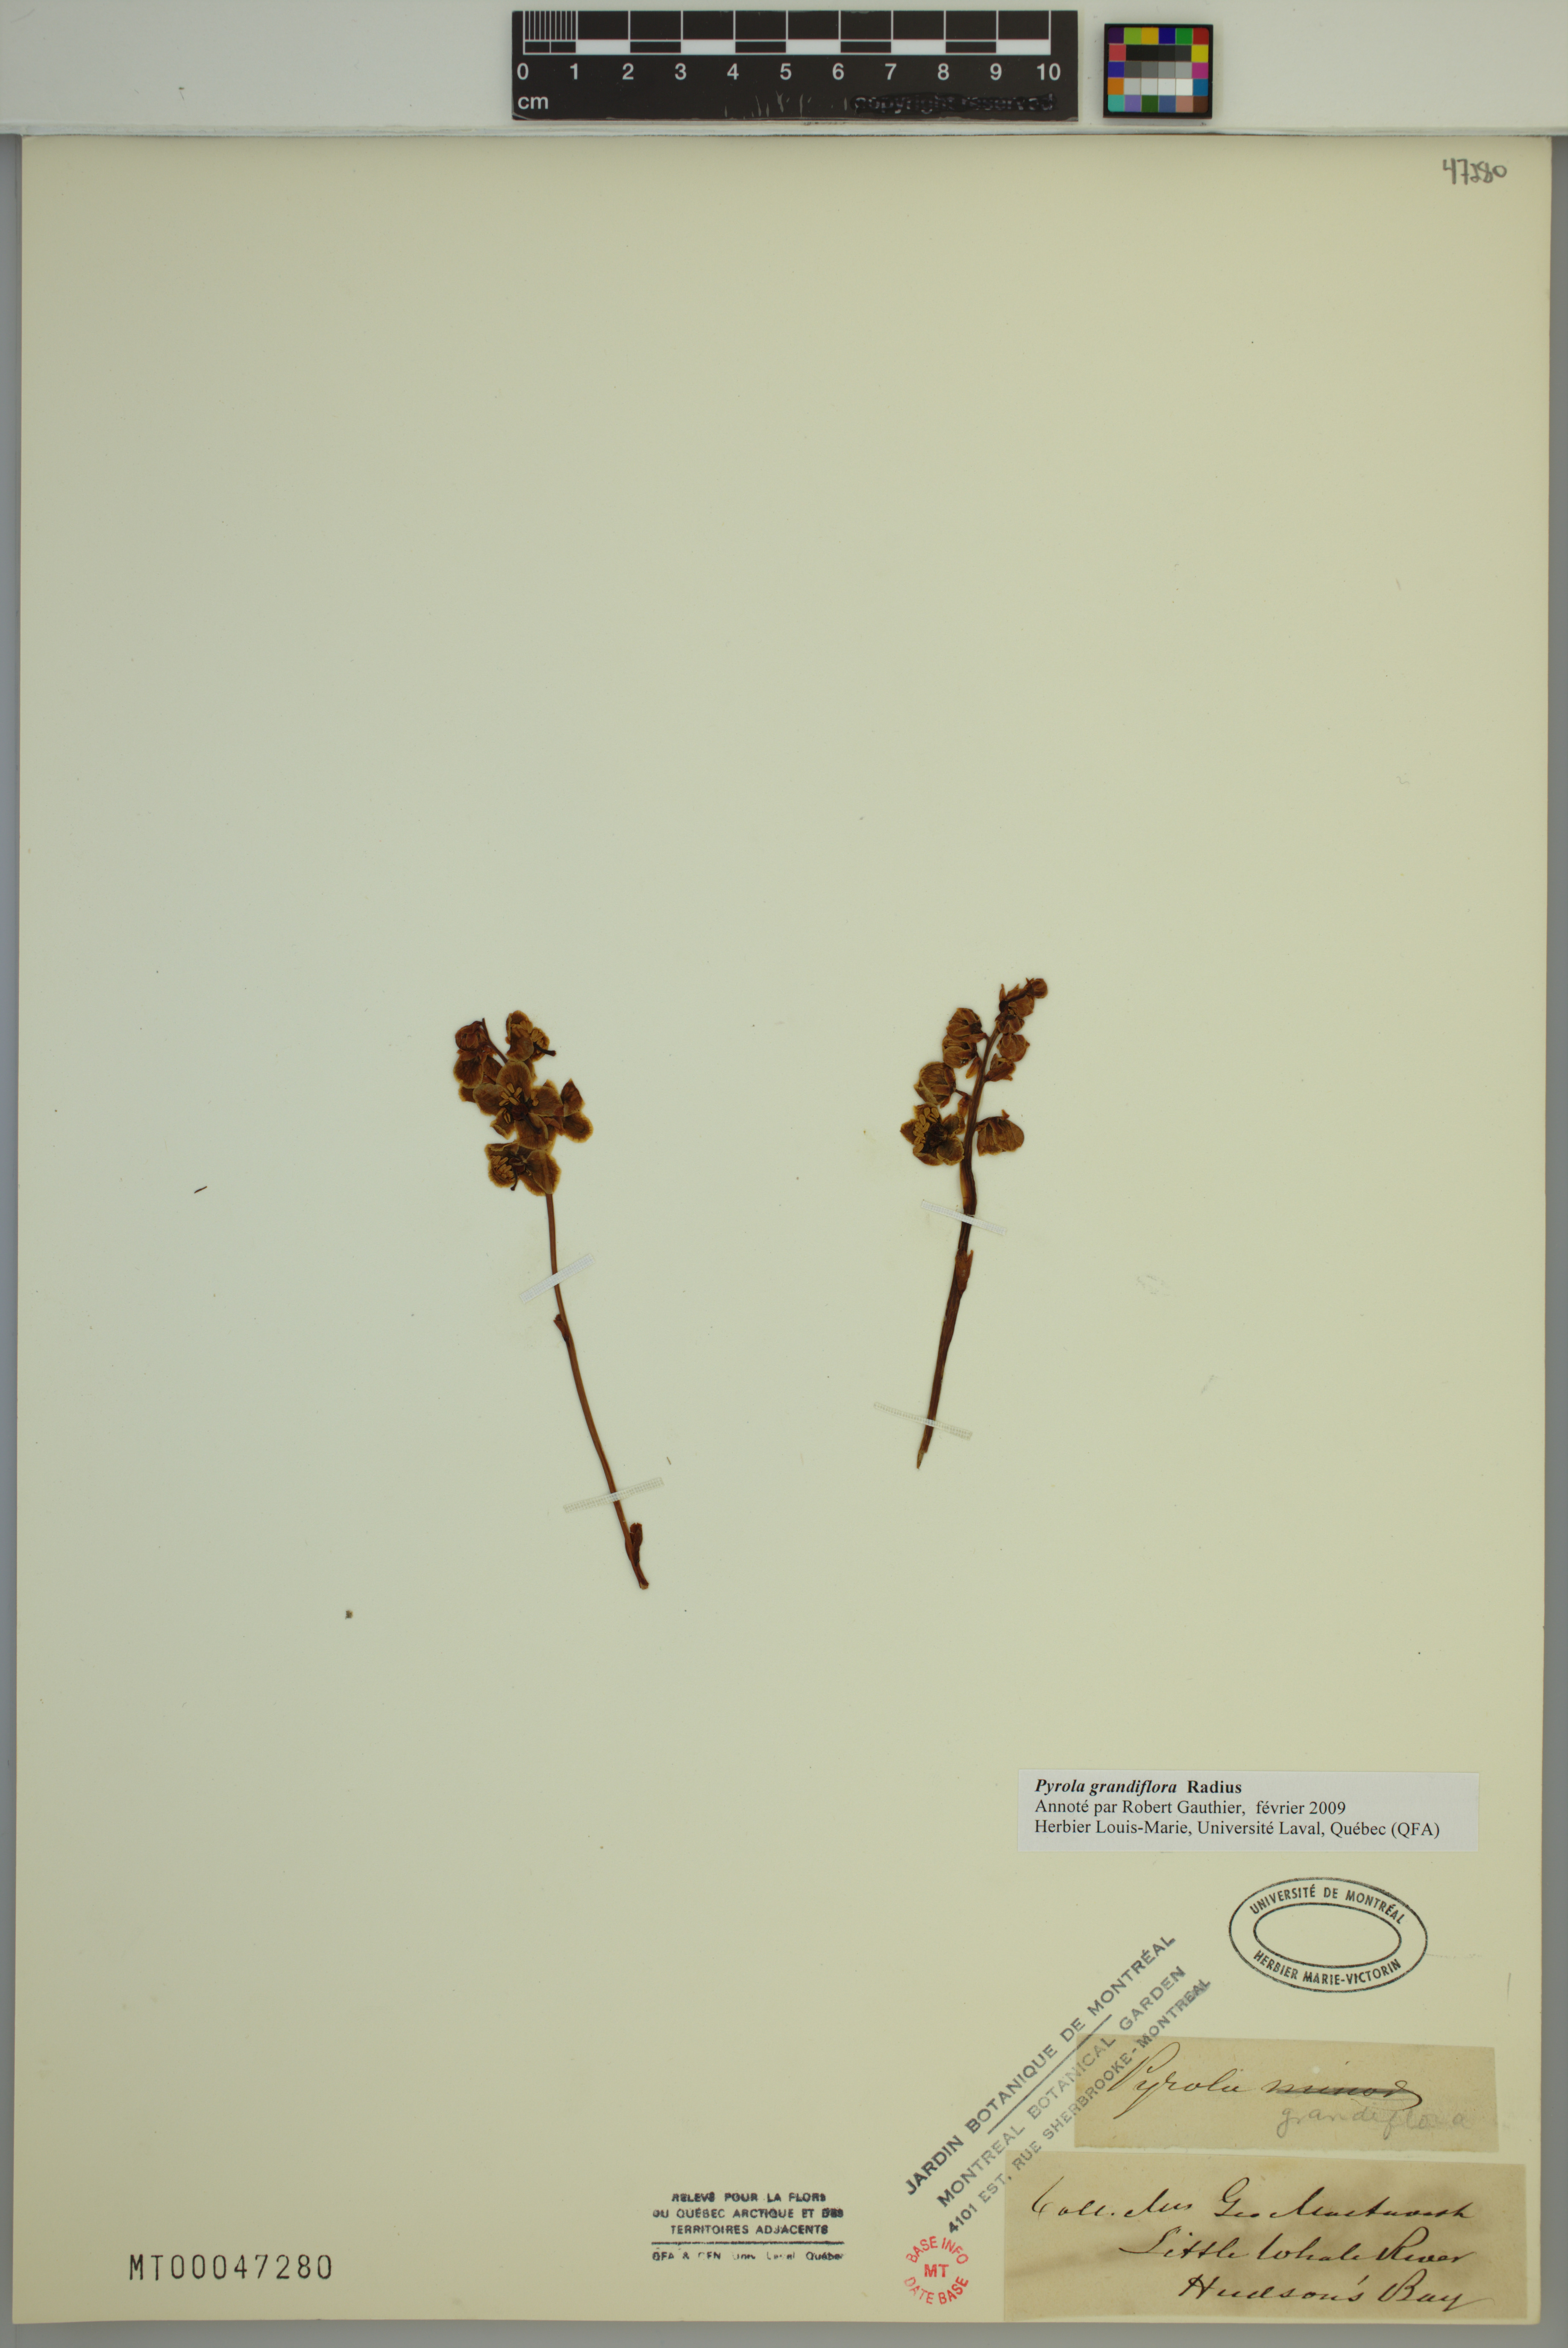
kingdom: Plantae
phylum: Tracheophyta
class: Magnoliopsida
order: Ericales
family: Ericaceae
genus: Pyrola
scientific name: Pyrola grandiflora
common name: Arctic pyrola
